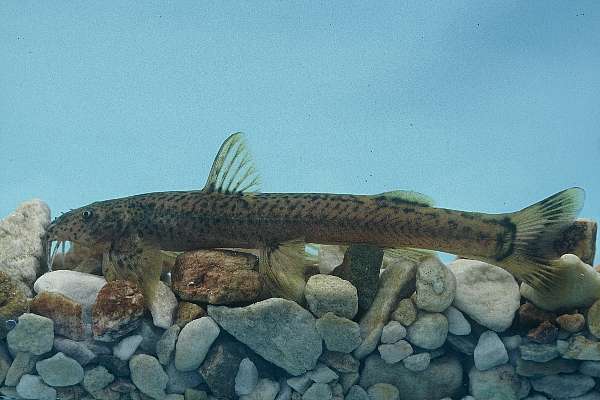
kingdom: Animalia
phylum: Chordata
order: Siluriformes
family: Schilbeidae
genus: Schilbe
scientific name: Schilbe intermedius
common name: Silver catfish
